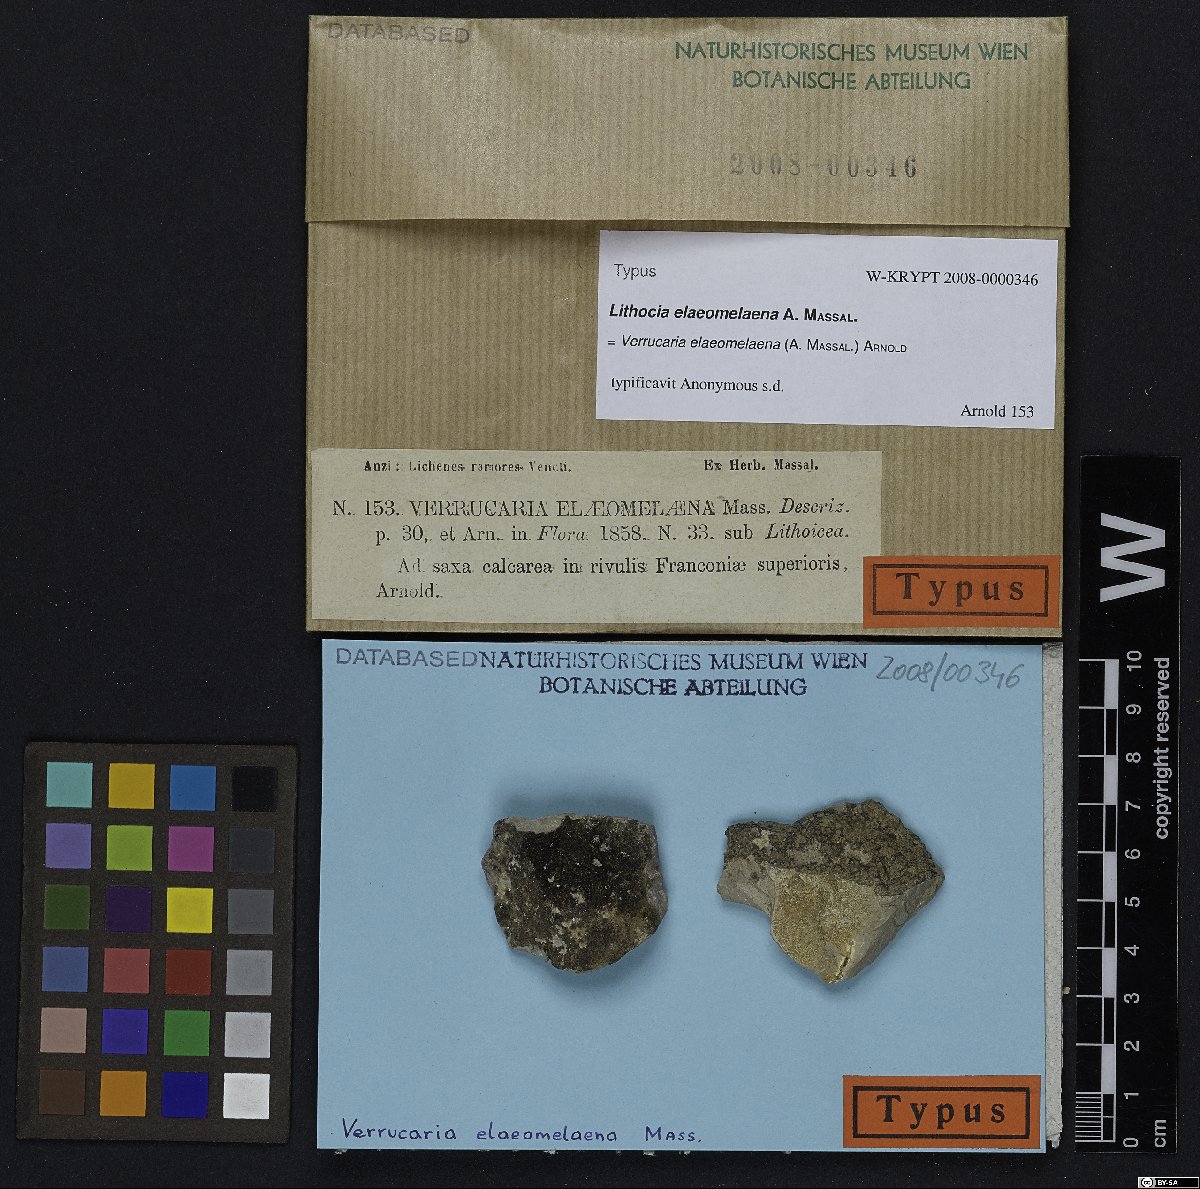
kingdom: Fungi
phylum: Ascomycota
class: Eurotiomycetes
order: Verrucariales
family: Verrucariaceae
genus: Verrucaria
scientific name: Verrucaria elaeomelaena
